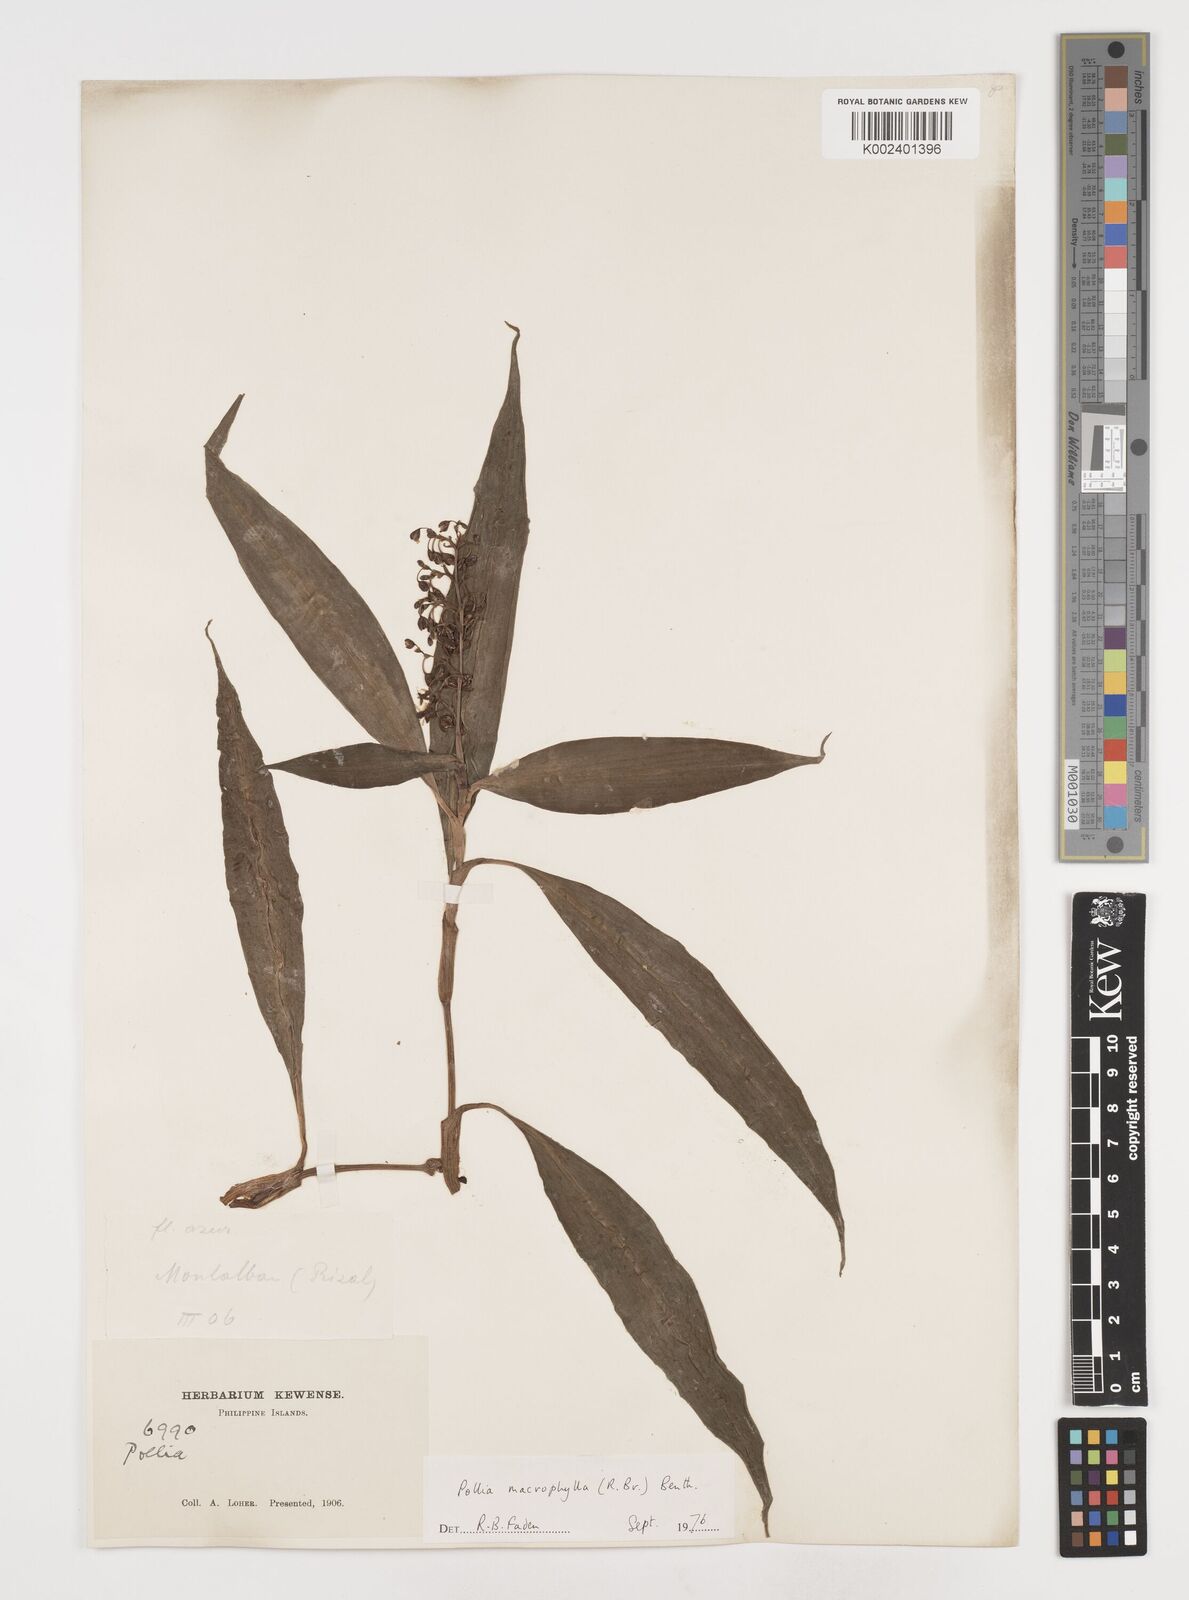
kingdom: Plantae
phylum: Tracheophyta
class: Liliopsida
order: Commelinales
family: Commelinaceae
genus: Pollia
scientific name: Pollia macrophylla
